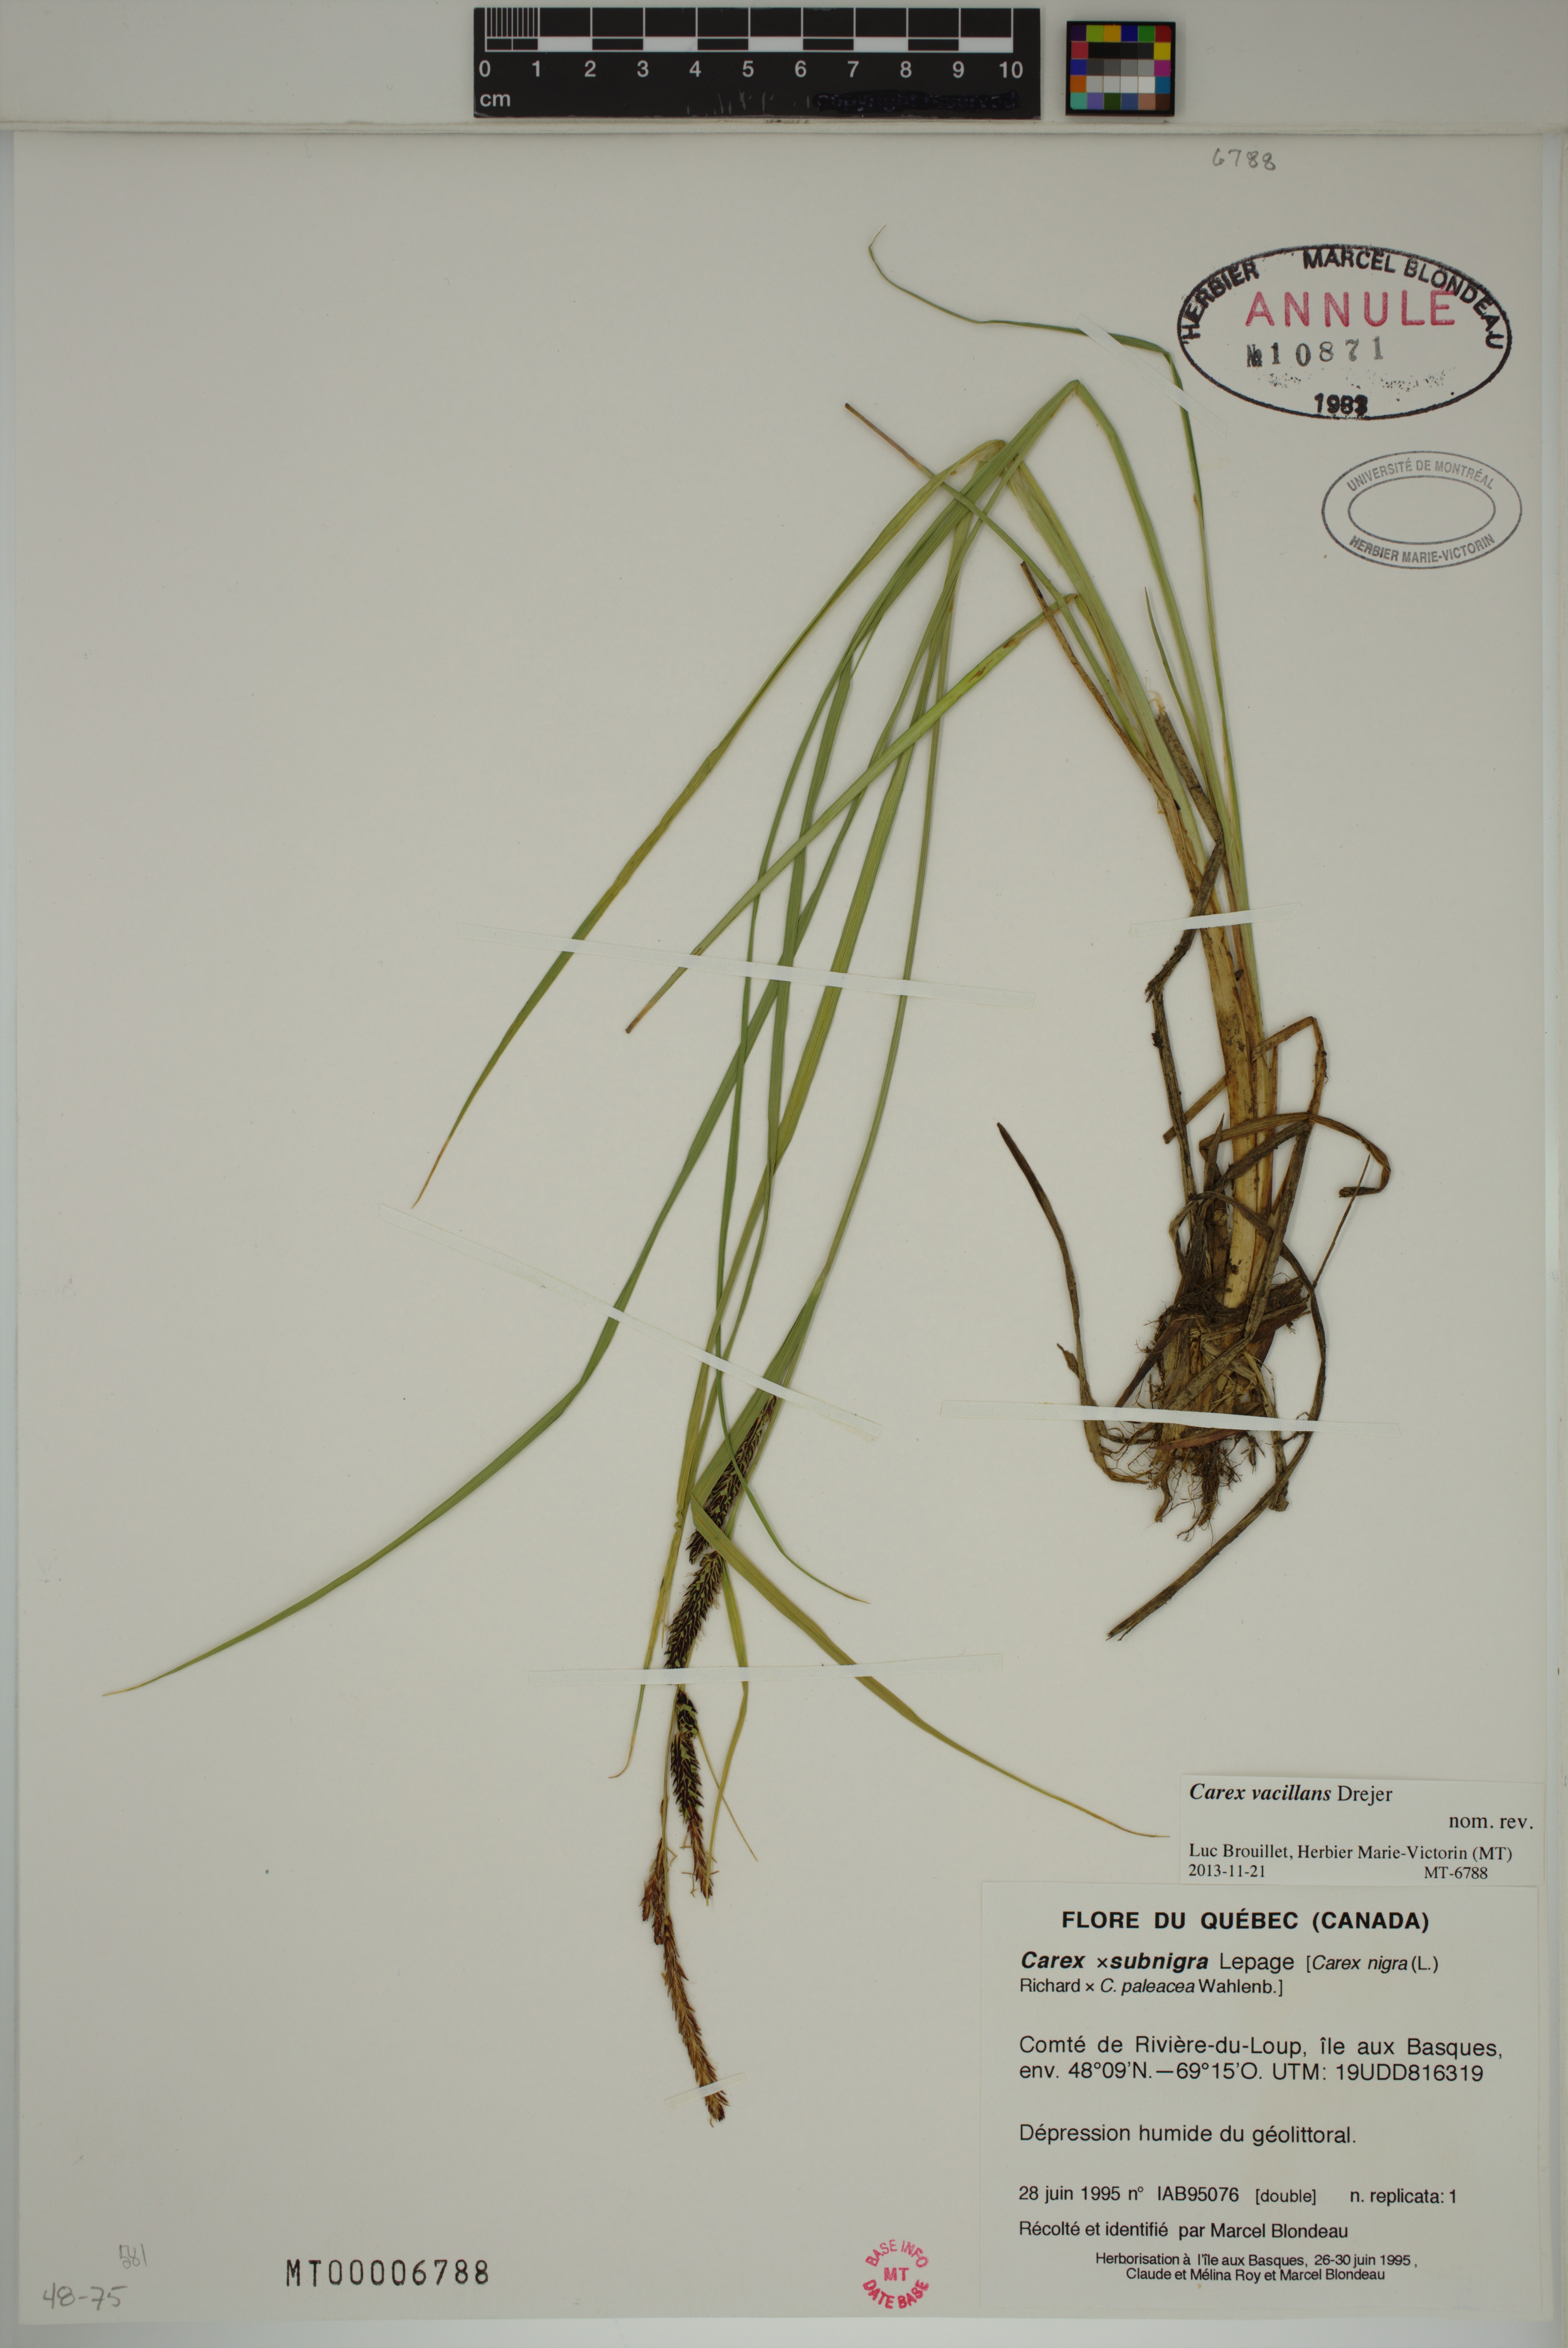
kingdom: Plantae
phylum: Tracheophyta
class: Liliopsida
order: Poales
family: Cyperaceae
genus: Carex
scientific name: Carex vacillans
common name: Sedge
